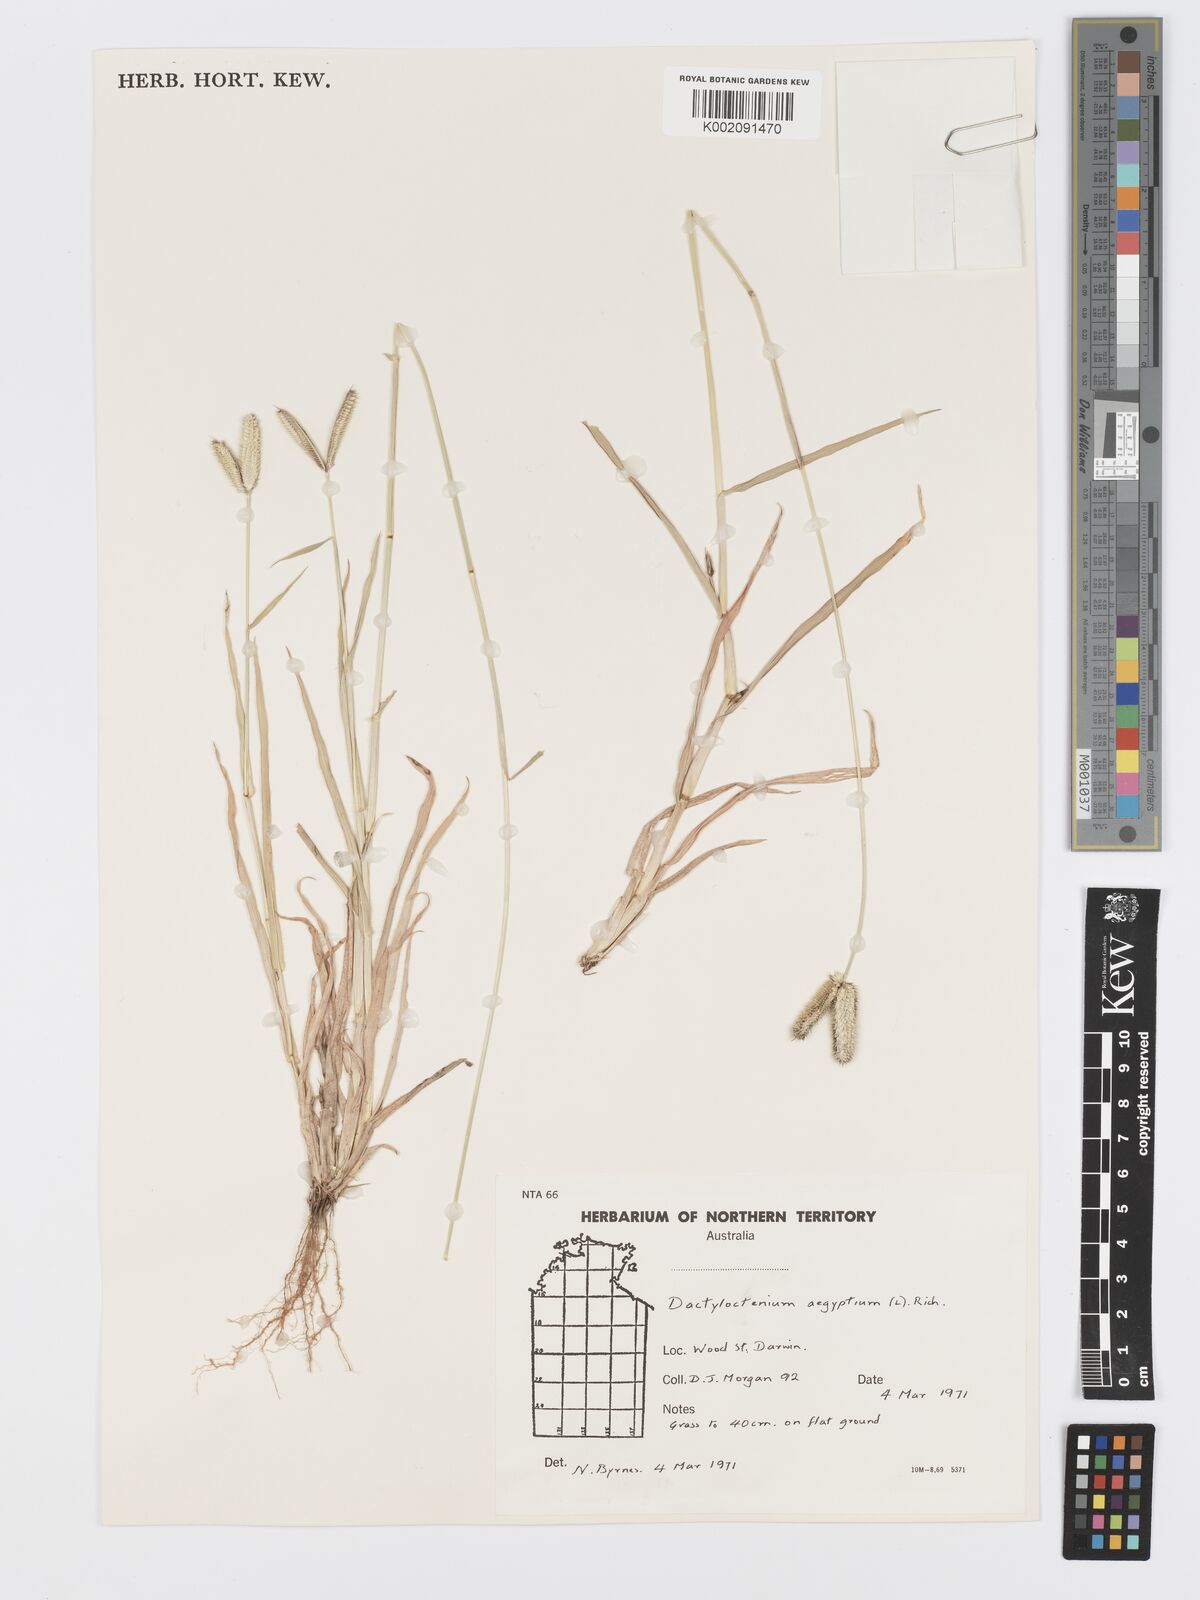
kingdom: Plantae
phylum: Tracheophyta
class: Liliopsida
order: Poales
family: Poaceae
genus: Dactyloctenium
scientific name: Dactyloctenium aegyptium
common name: Egyptian grass
